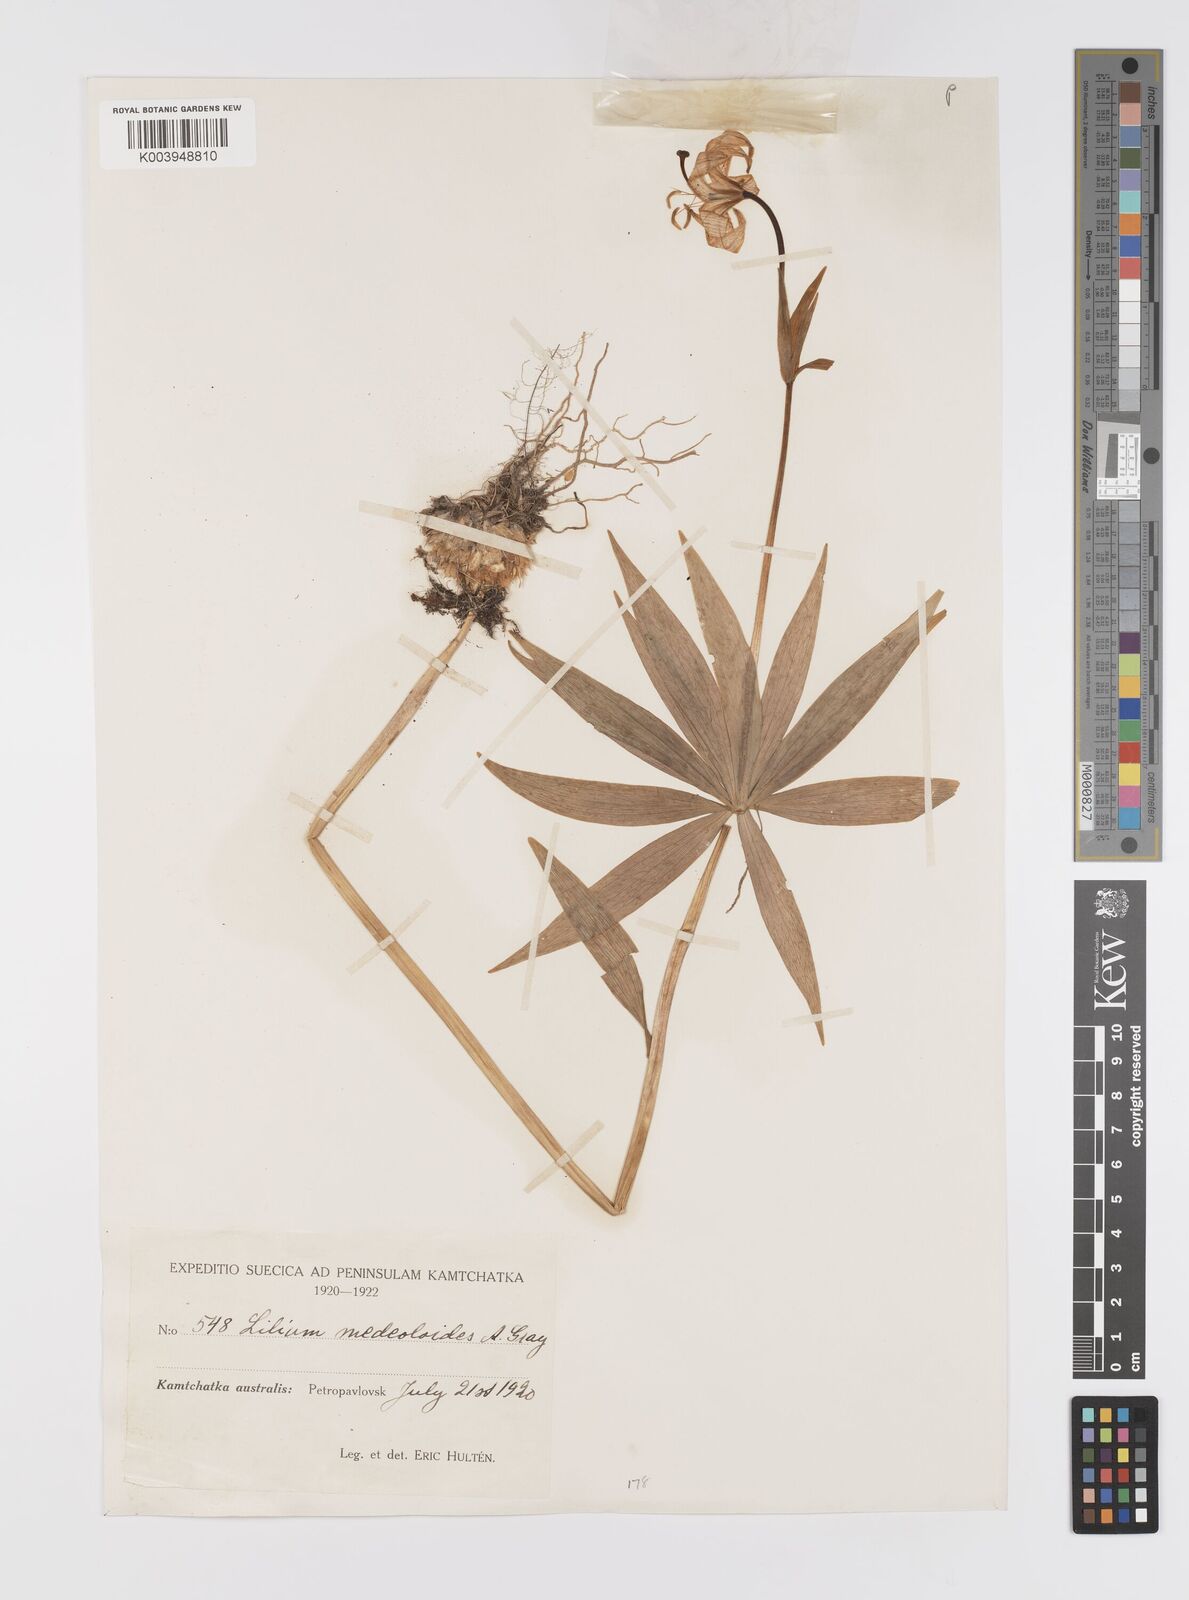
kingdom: Plantae
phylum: Tracheophyta
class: Liliopsida
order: Liliales
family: Liliaceae
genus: Lilium
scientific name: Lilium medeoloides
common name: Wheel lily
